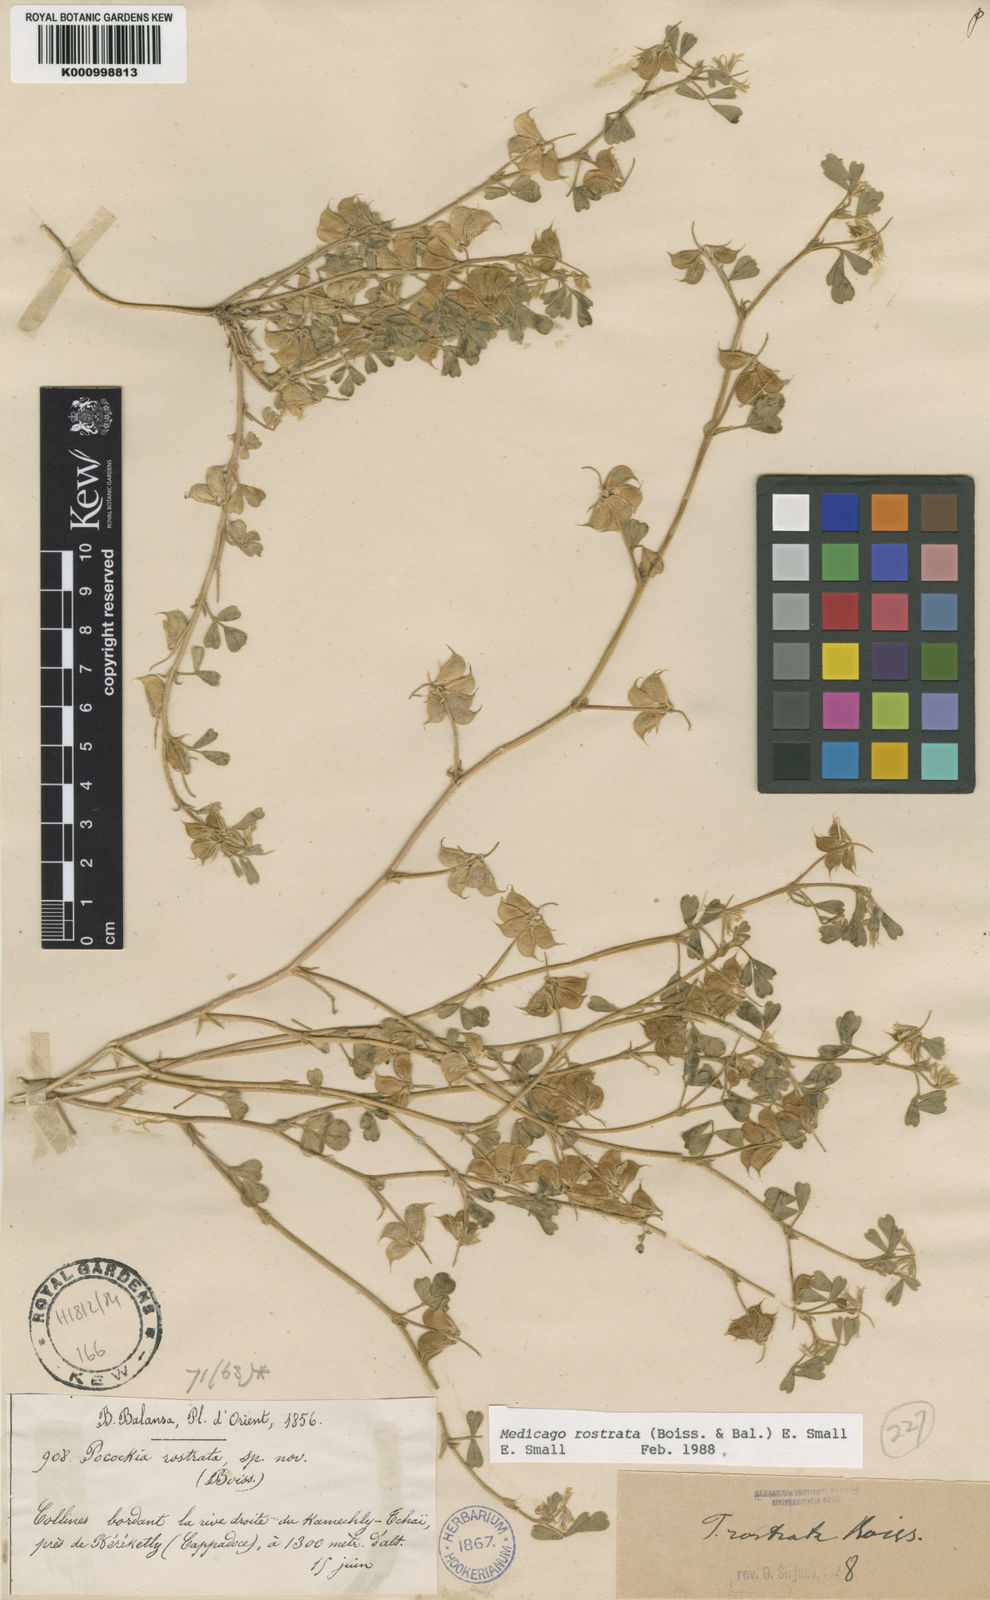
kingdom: Plantae
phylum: Tracheophyta
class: Magnoliopsida
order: Fabales
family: Fabaceae
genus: Medicago
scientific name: Medicago rostrata
